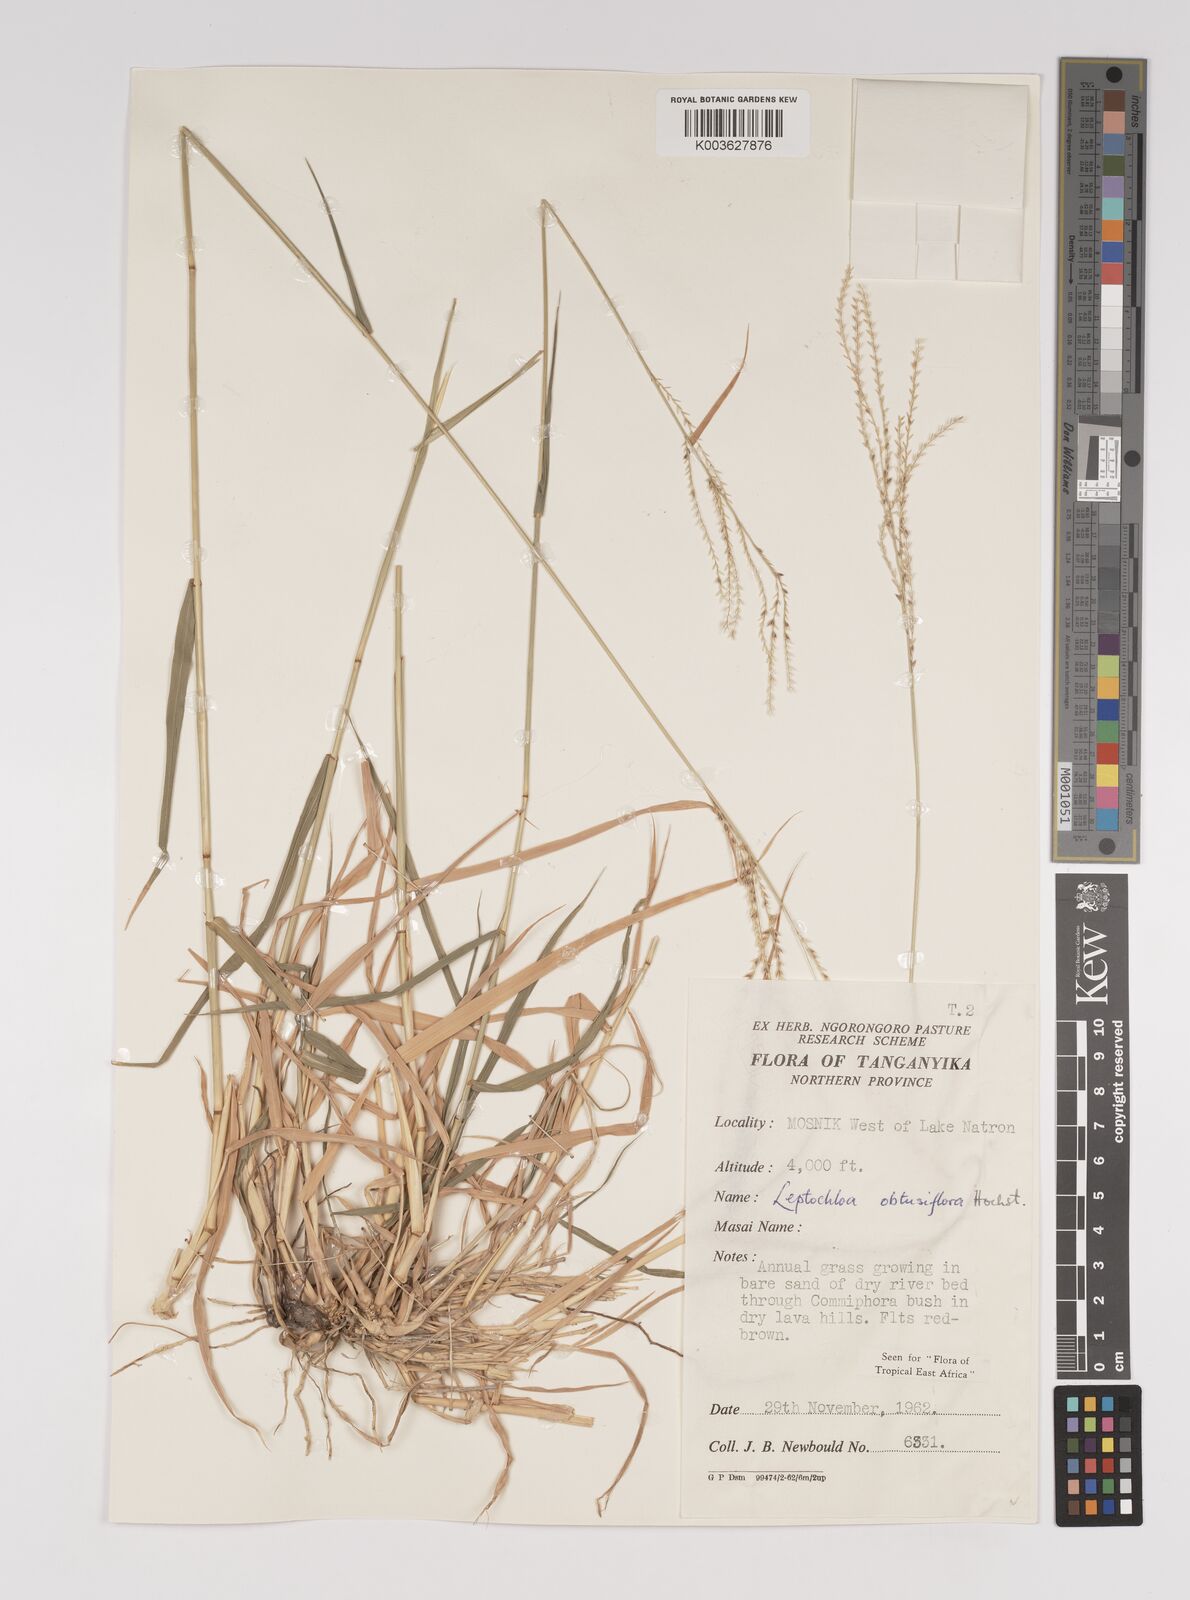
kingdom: Plantae
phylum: Tracheophyta
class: Liliopsida
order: Poales
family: Poaceae
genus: Disakisperma
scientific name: Disakisperma obtusiflorum
